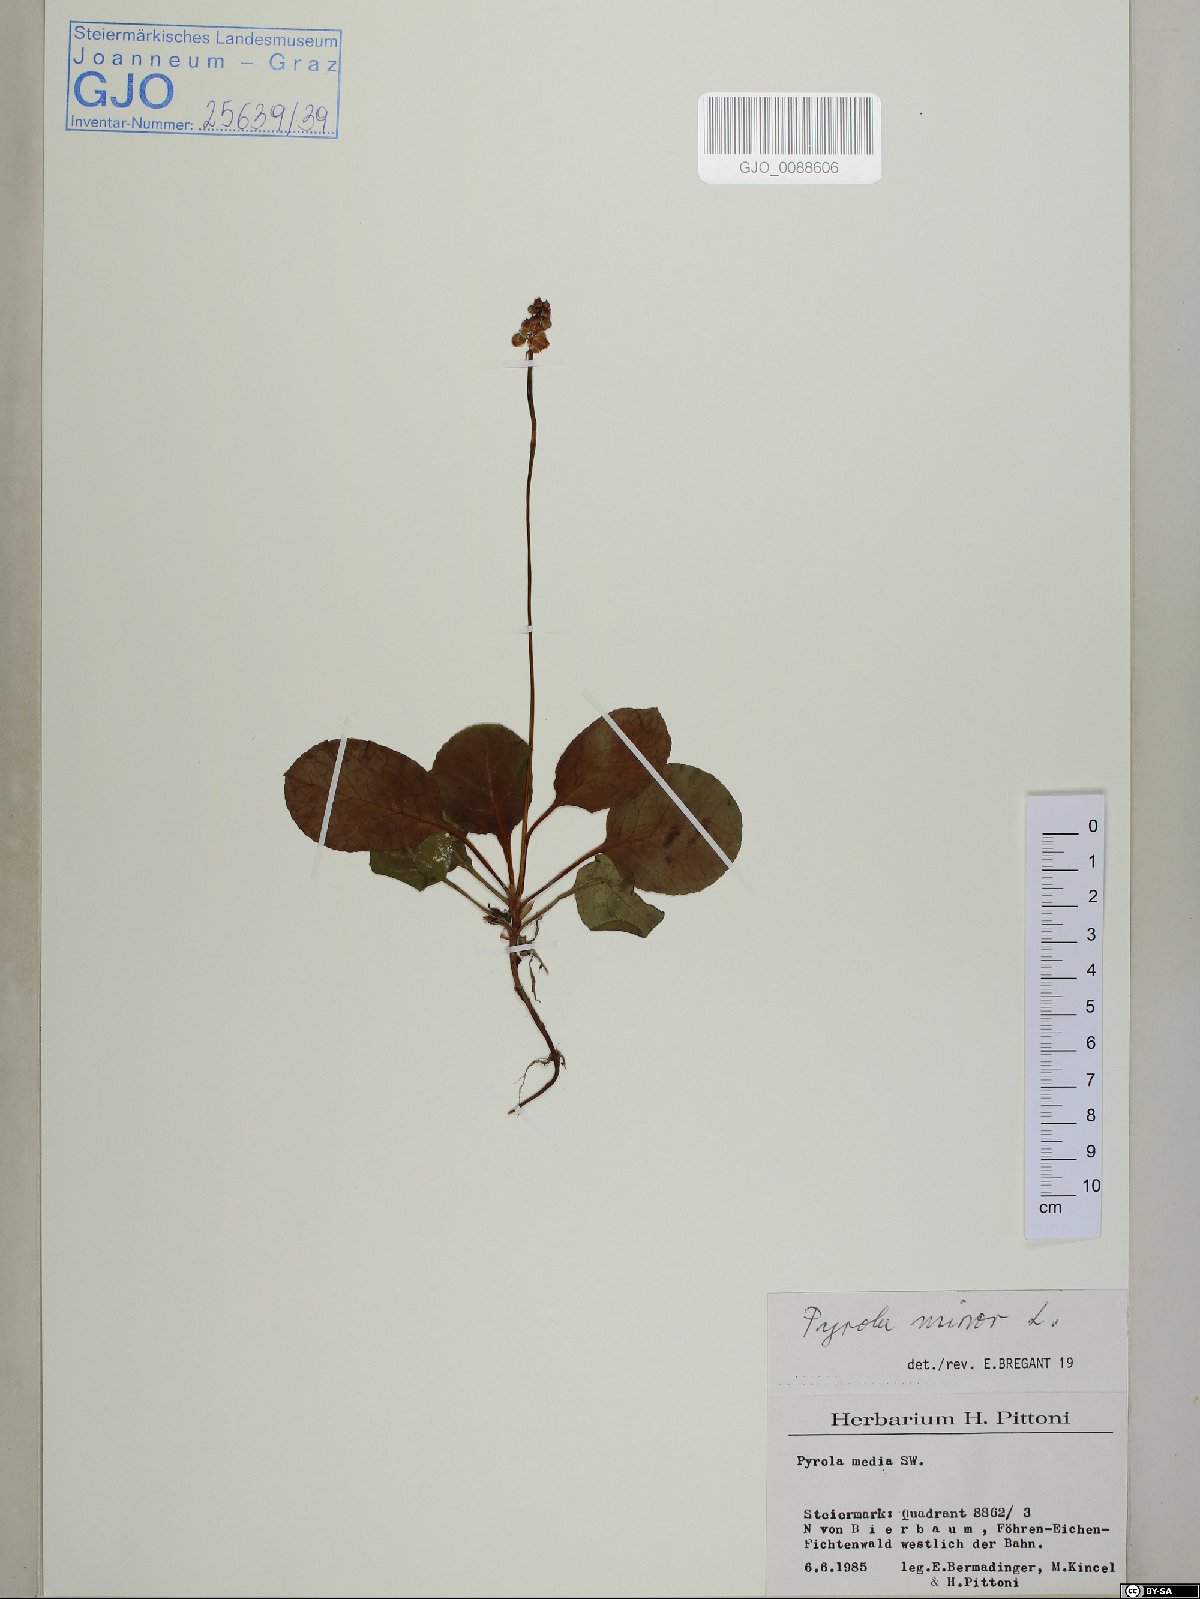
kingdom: Plantae
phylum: Tracheophyta
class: Magnoliopsida
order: Ericales
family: Ericaceae
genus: Pyrola
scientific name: Pyrola minor
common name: Common wintergreen
